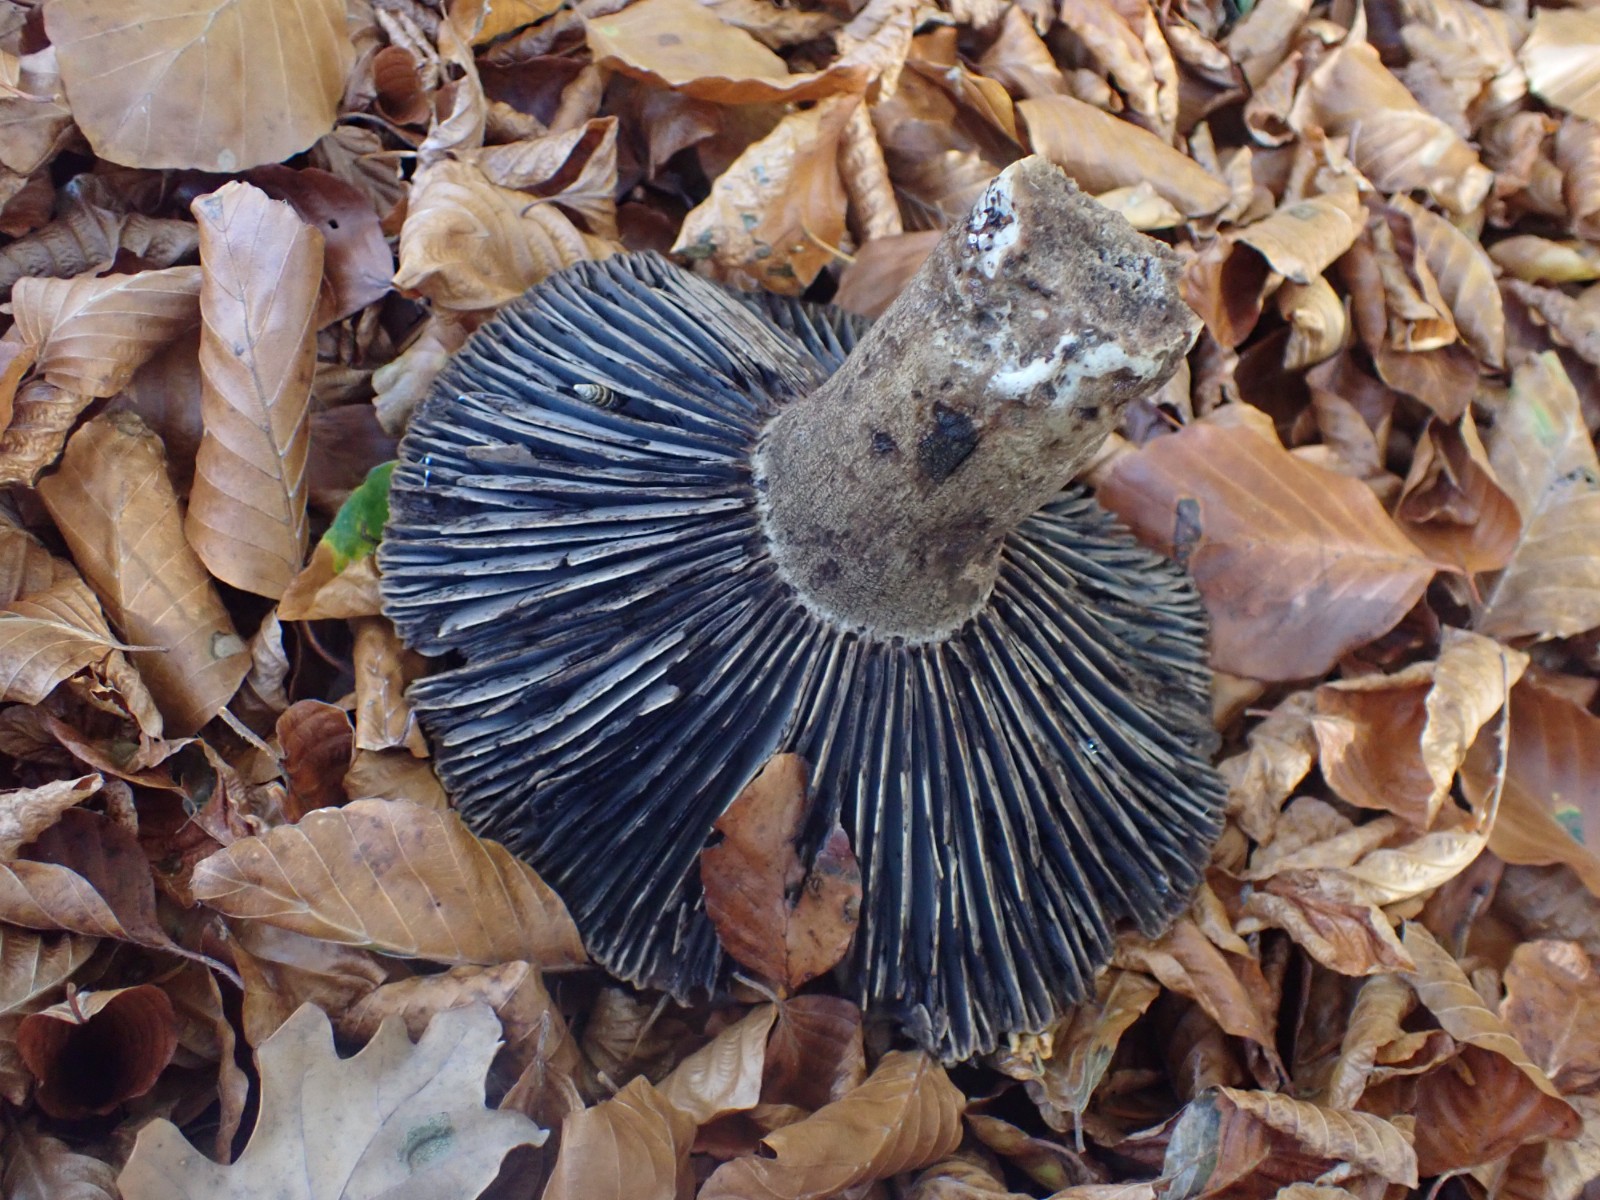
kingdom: Fungi
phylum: Basidiomycota
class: Agaricomycetes
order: Russulales
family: Russulaceae
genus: Russula
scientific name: Russula adusta
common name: sværtende skørhat
